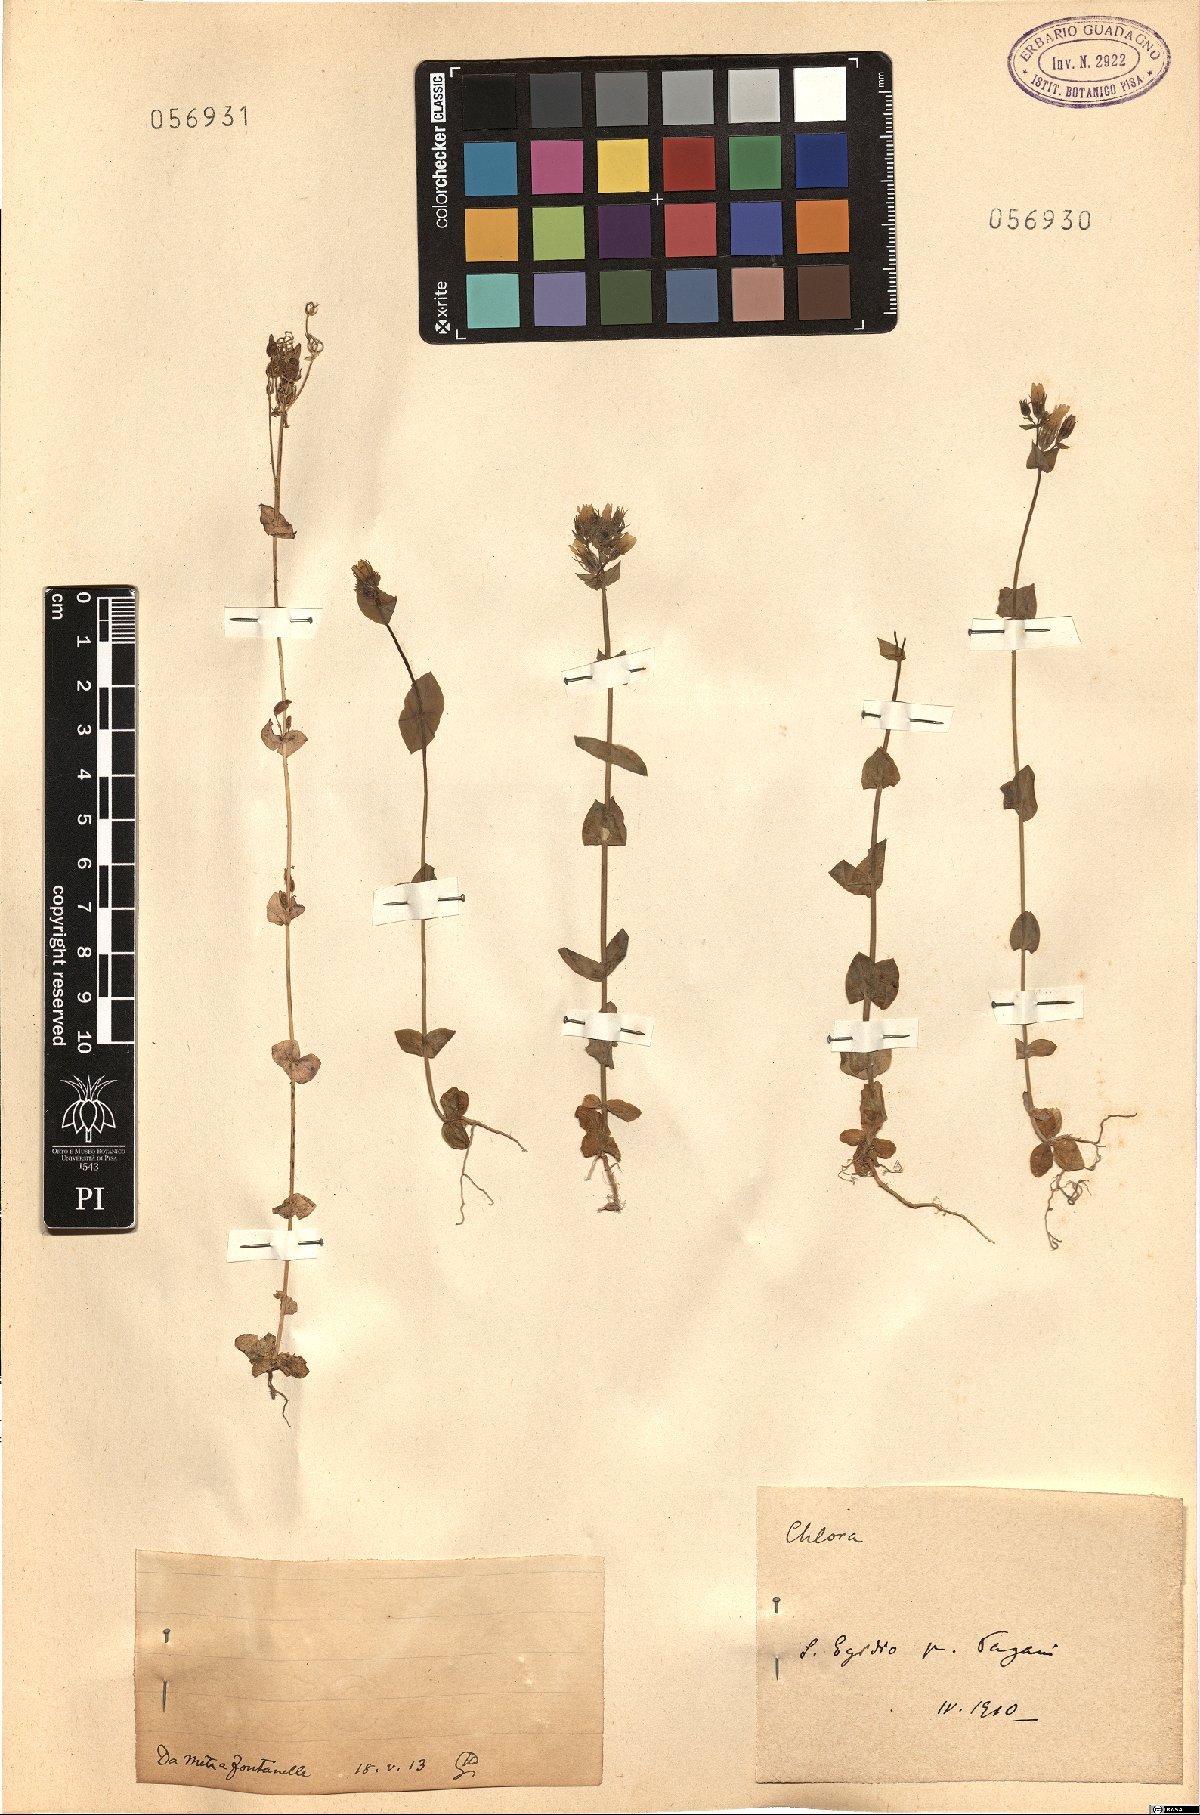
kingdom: Plantae
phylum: Tracheophyta
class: Magnoliopsida
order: Gentianales
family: Gentianaceae
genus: Blackstonia
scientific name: Blackstonia
